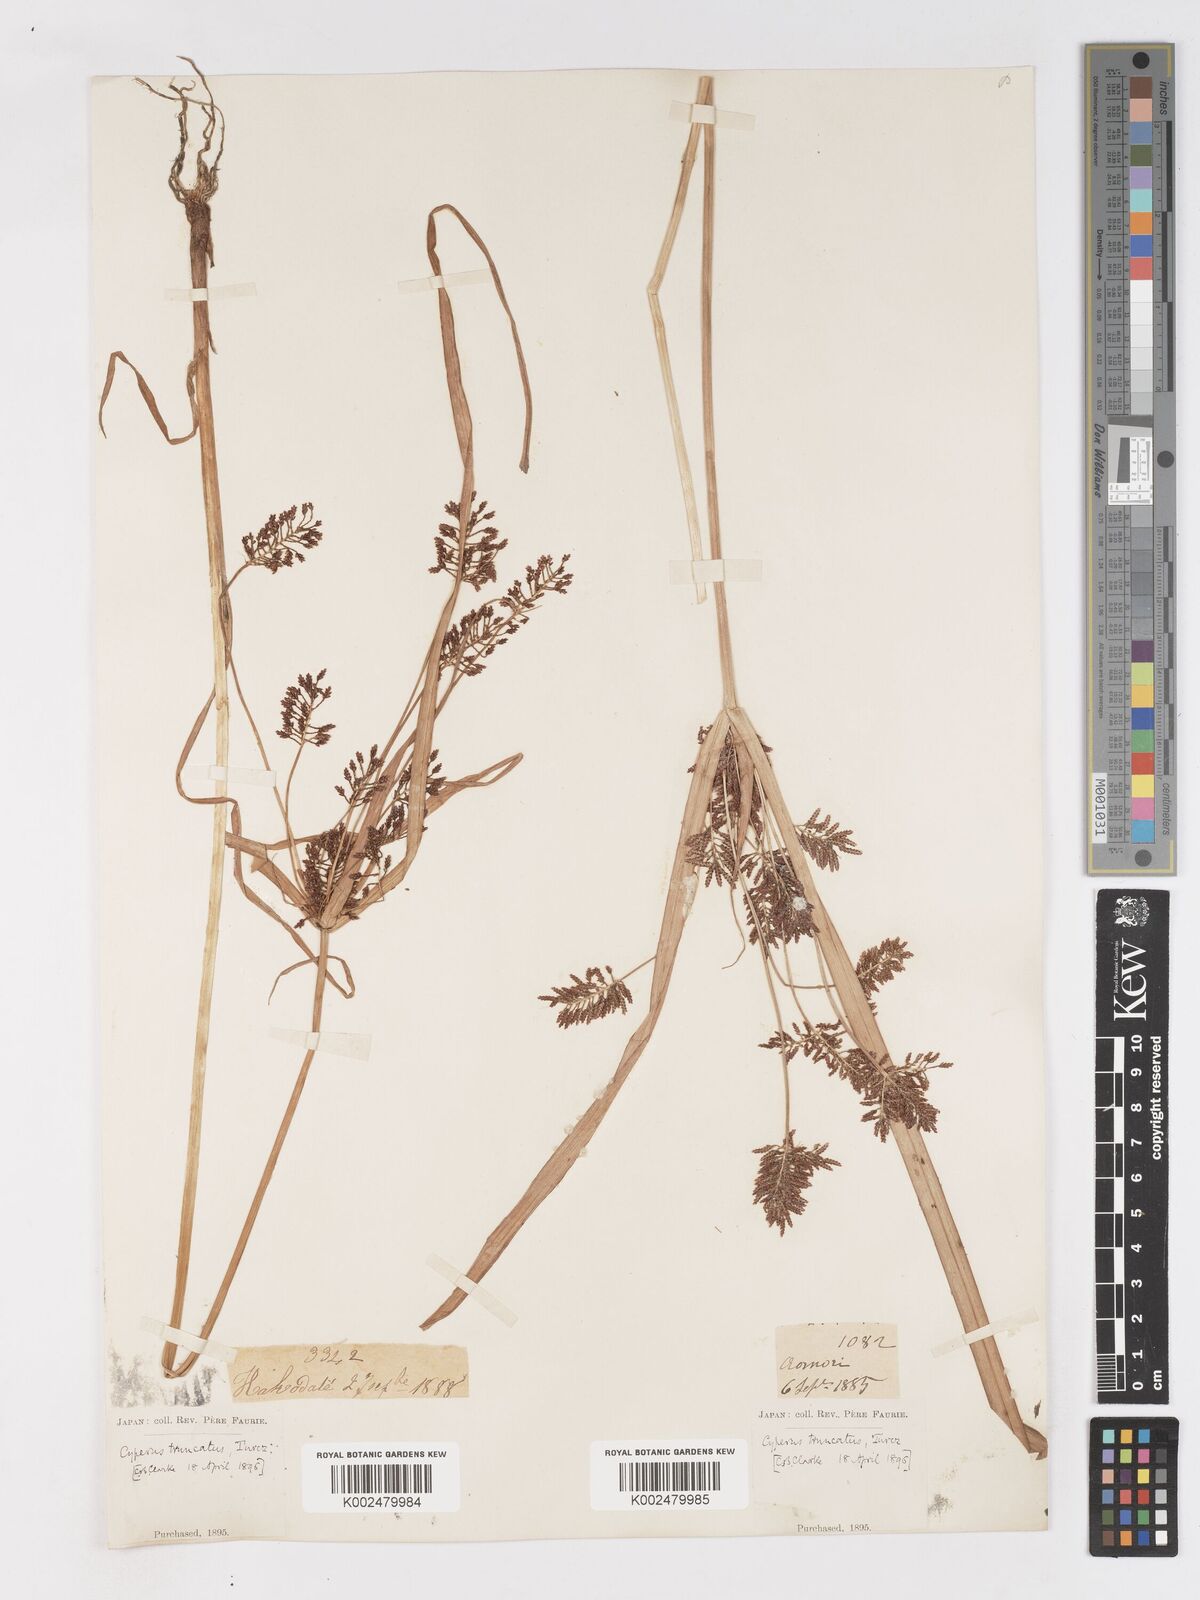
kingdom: Plantae
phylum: Tracheophyta
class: Liliopsida
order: Poales
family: Cyperaceae
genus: Cyperus
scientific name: Cyperus orthostachyus
